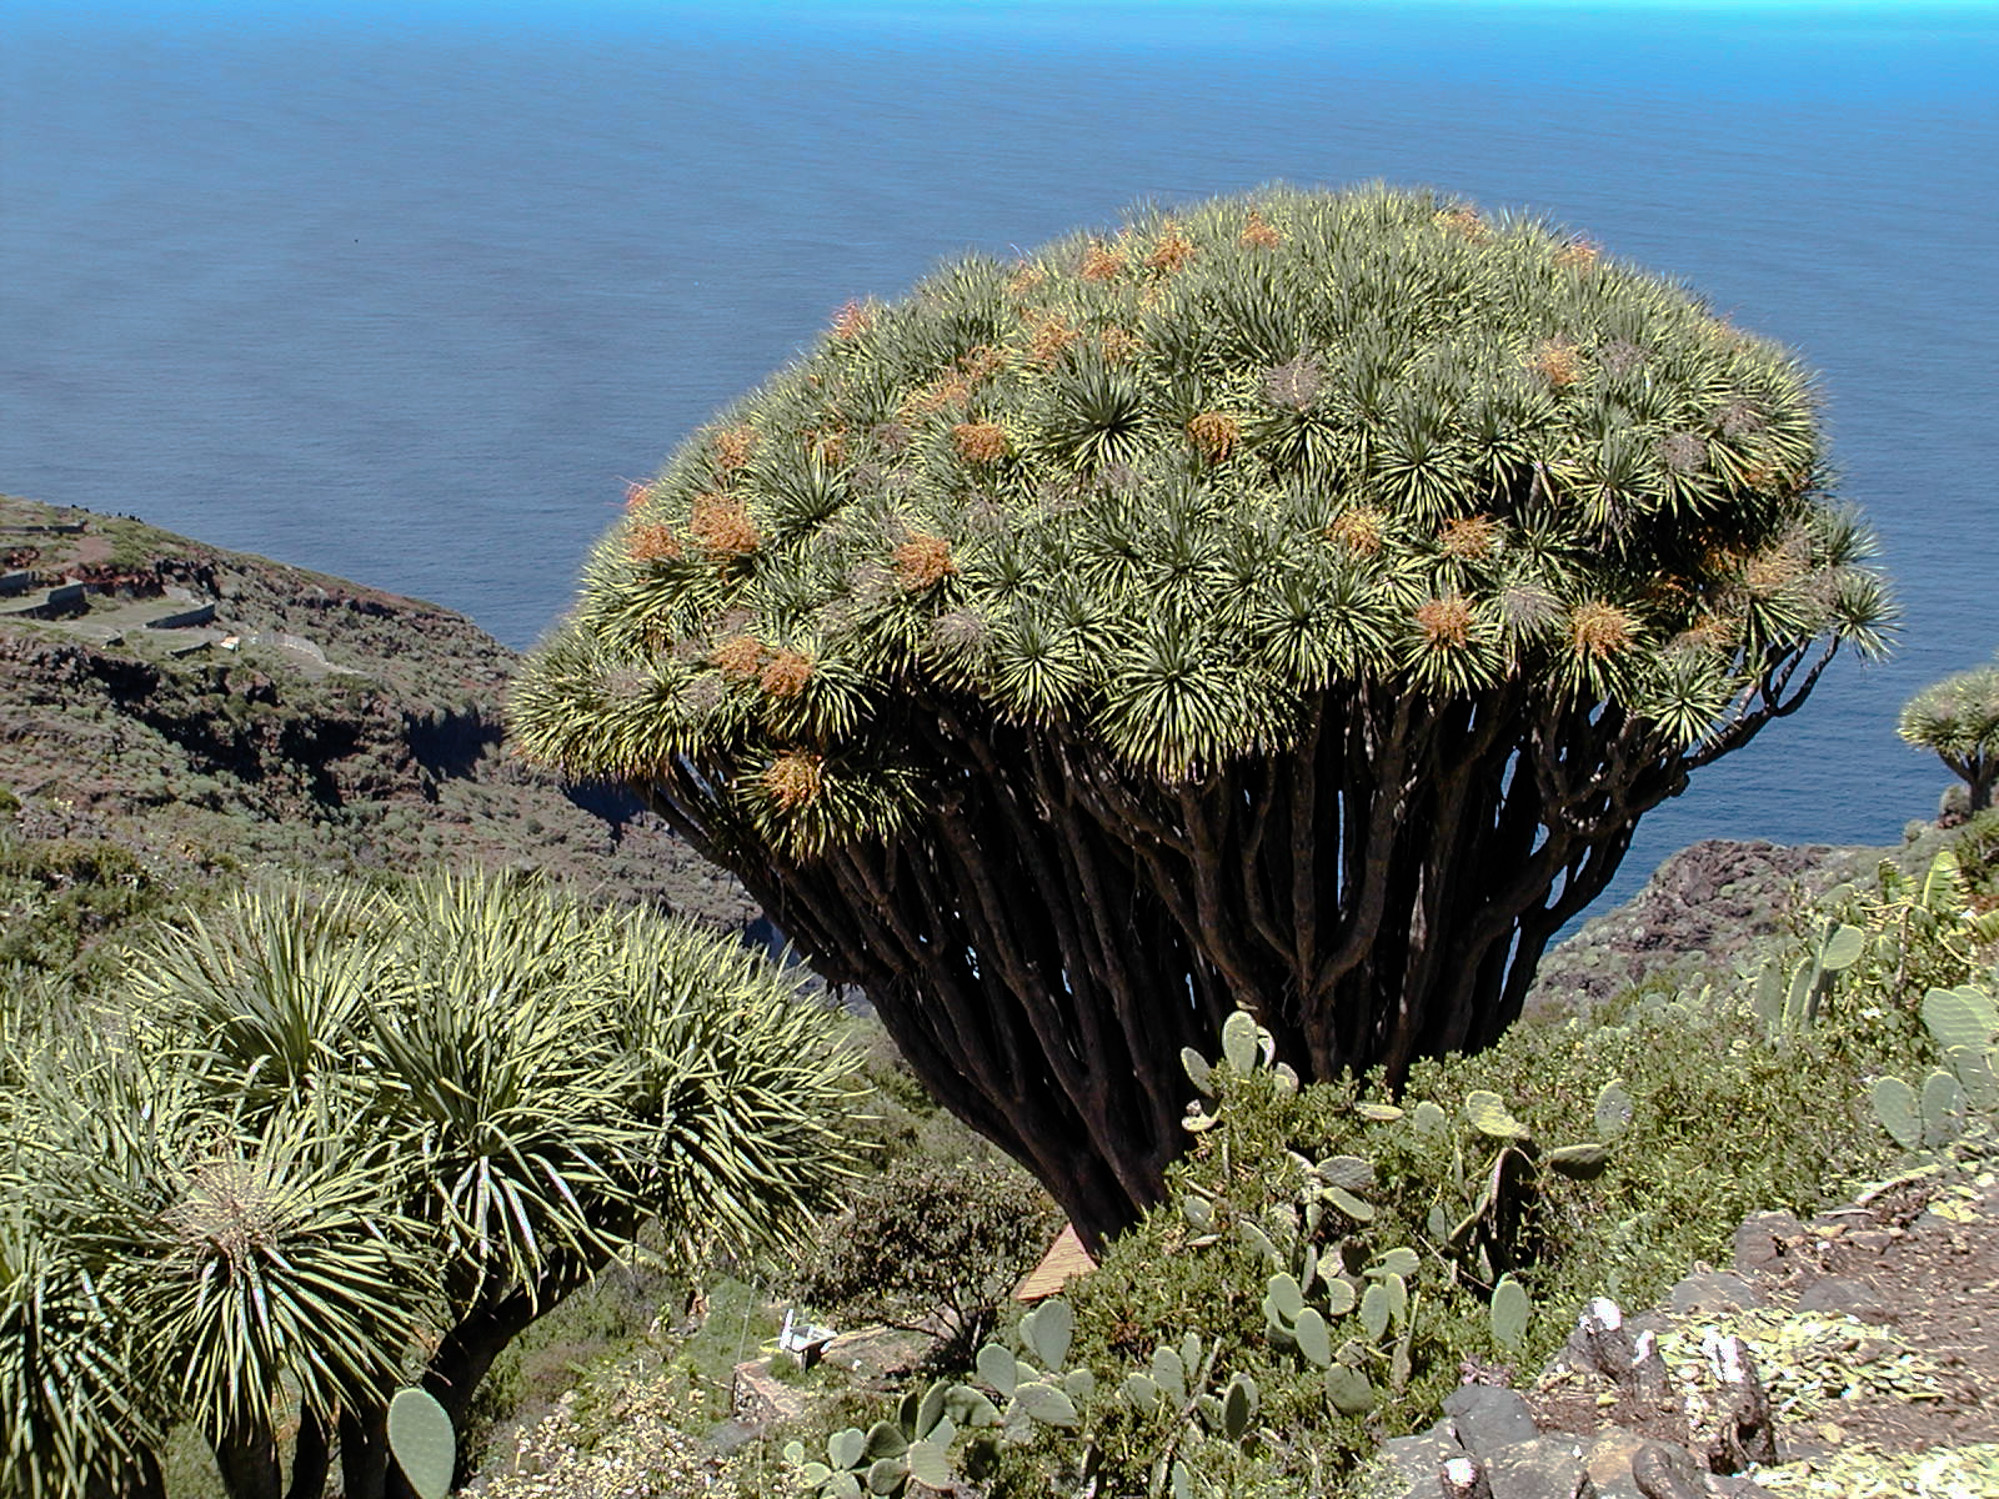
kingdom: Plantae
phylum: Tracheophyta
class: Liliopsida
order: Asparagales
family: Asparagaceae
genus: Dracaena
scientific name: Dracaena draco
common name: Canary island dragon tree
